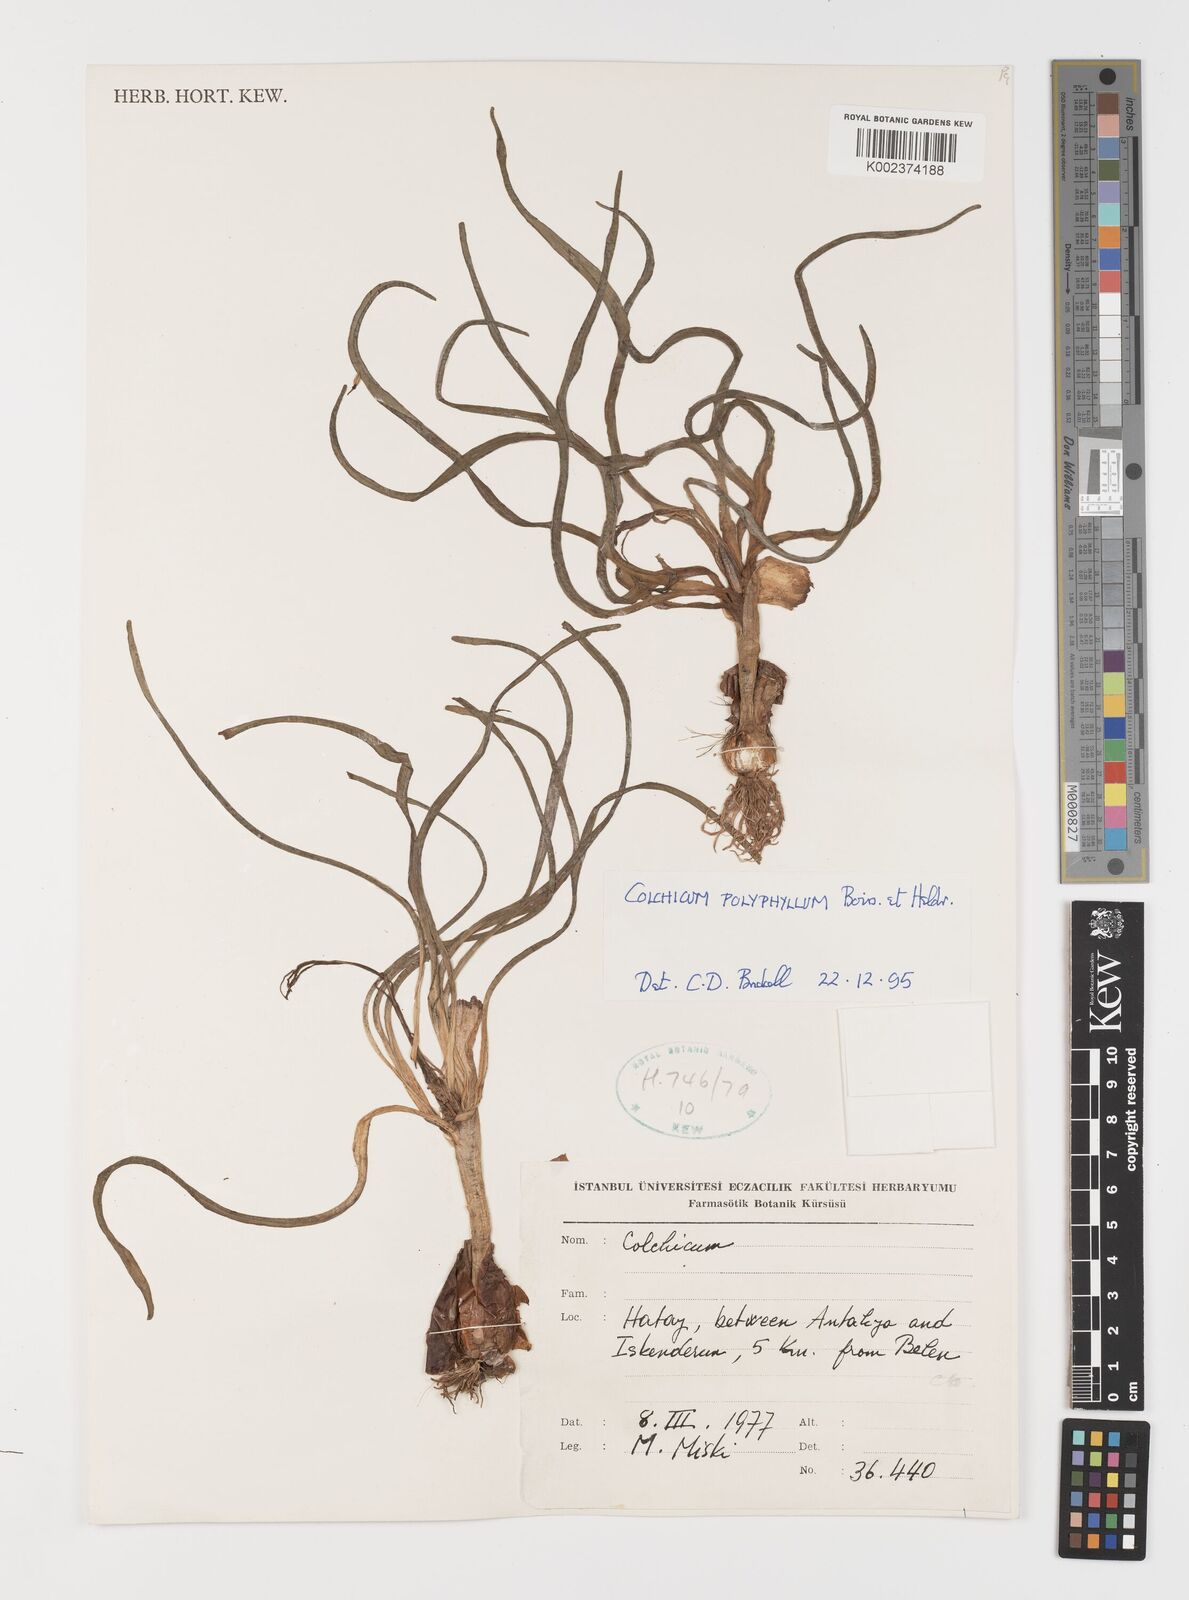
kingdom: Plantae
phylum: Tracheophyta
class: Liliopsida
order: Liliales
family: Colchicaceae
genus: Colchicum
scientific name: Colchicum polyphyllum
